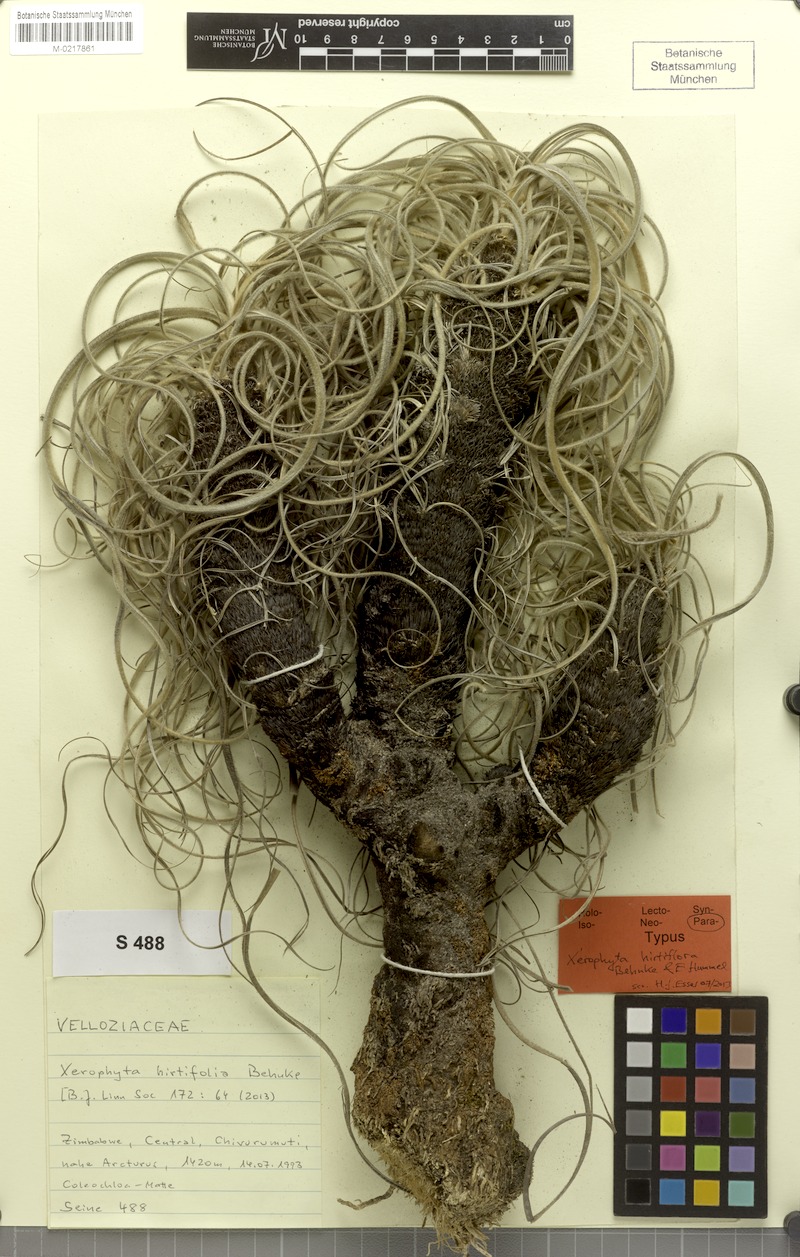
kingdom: Plantae
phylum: Tracheophyta
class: Liliopsida
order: Pandanales
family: Velloziaceae
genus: Xerophyta
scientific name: Xerophyta hirtiflora
